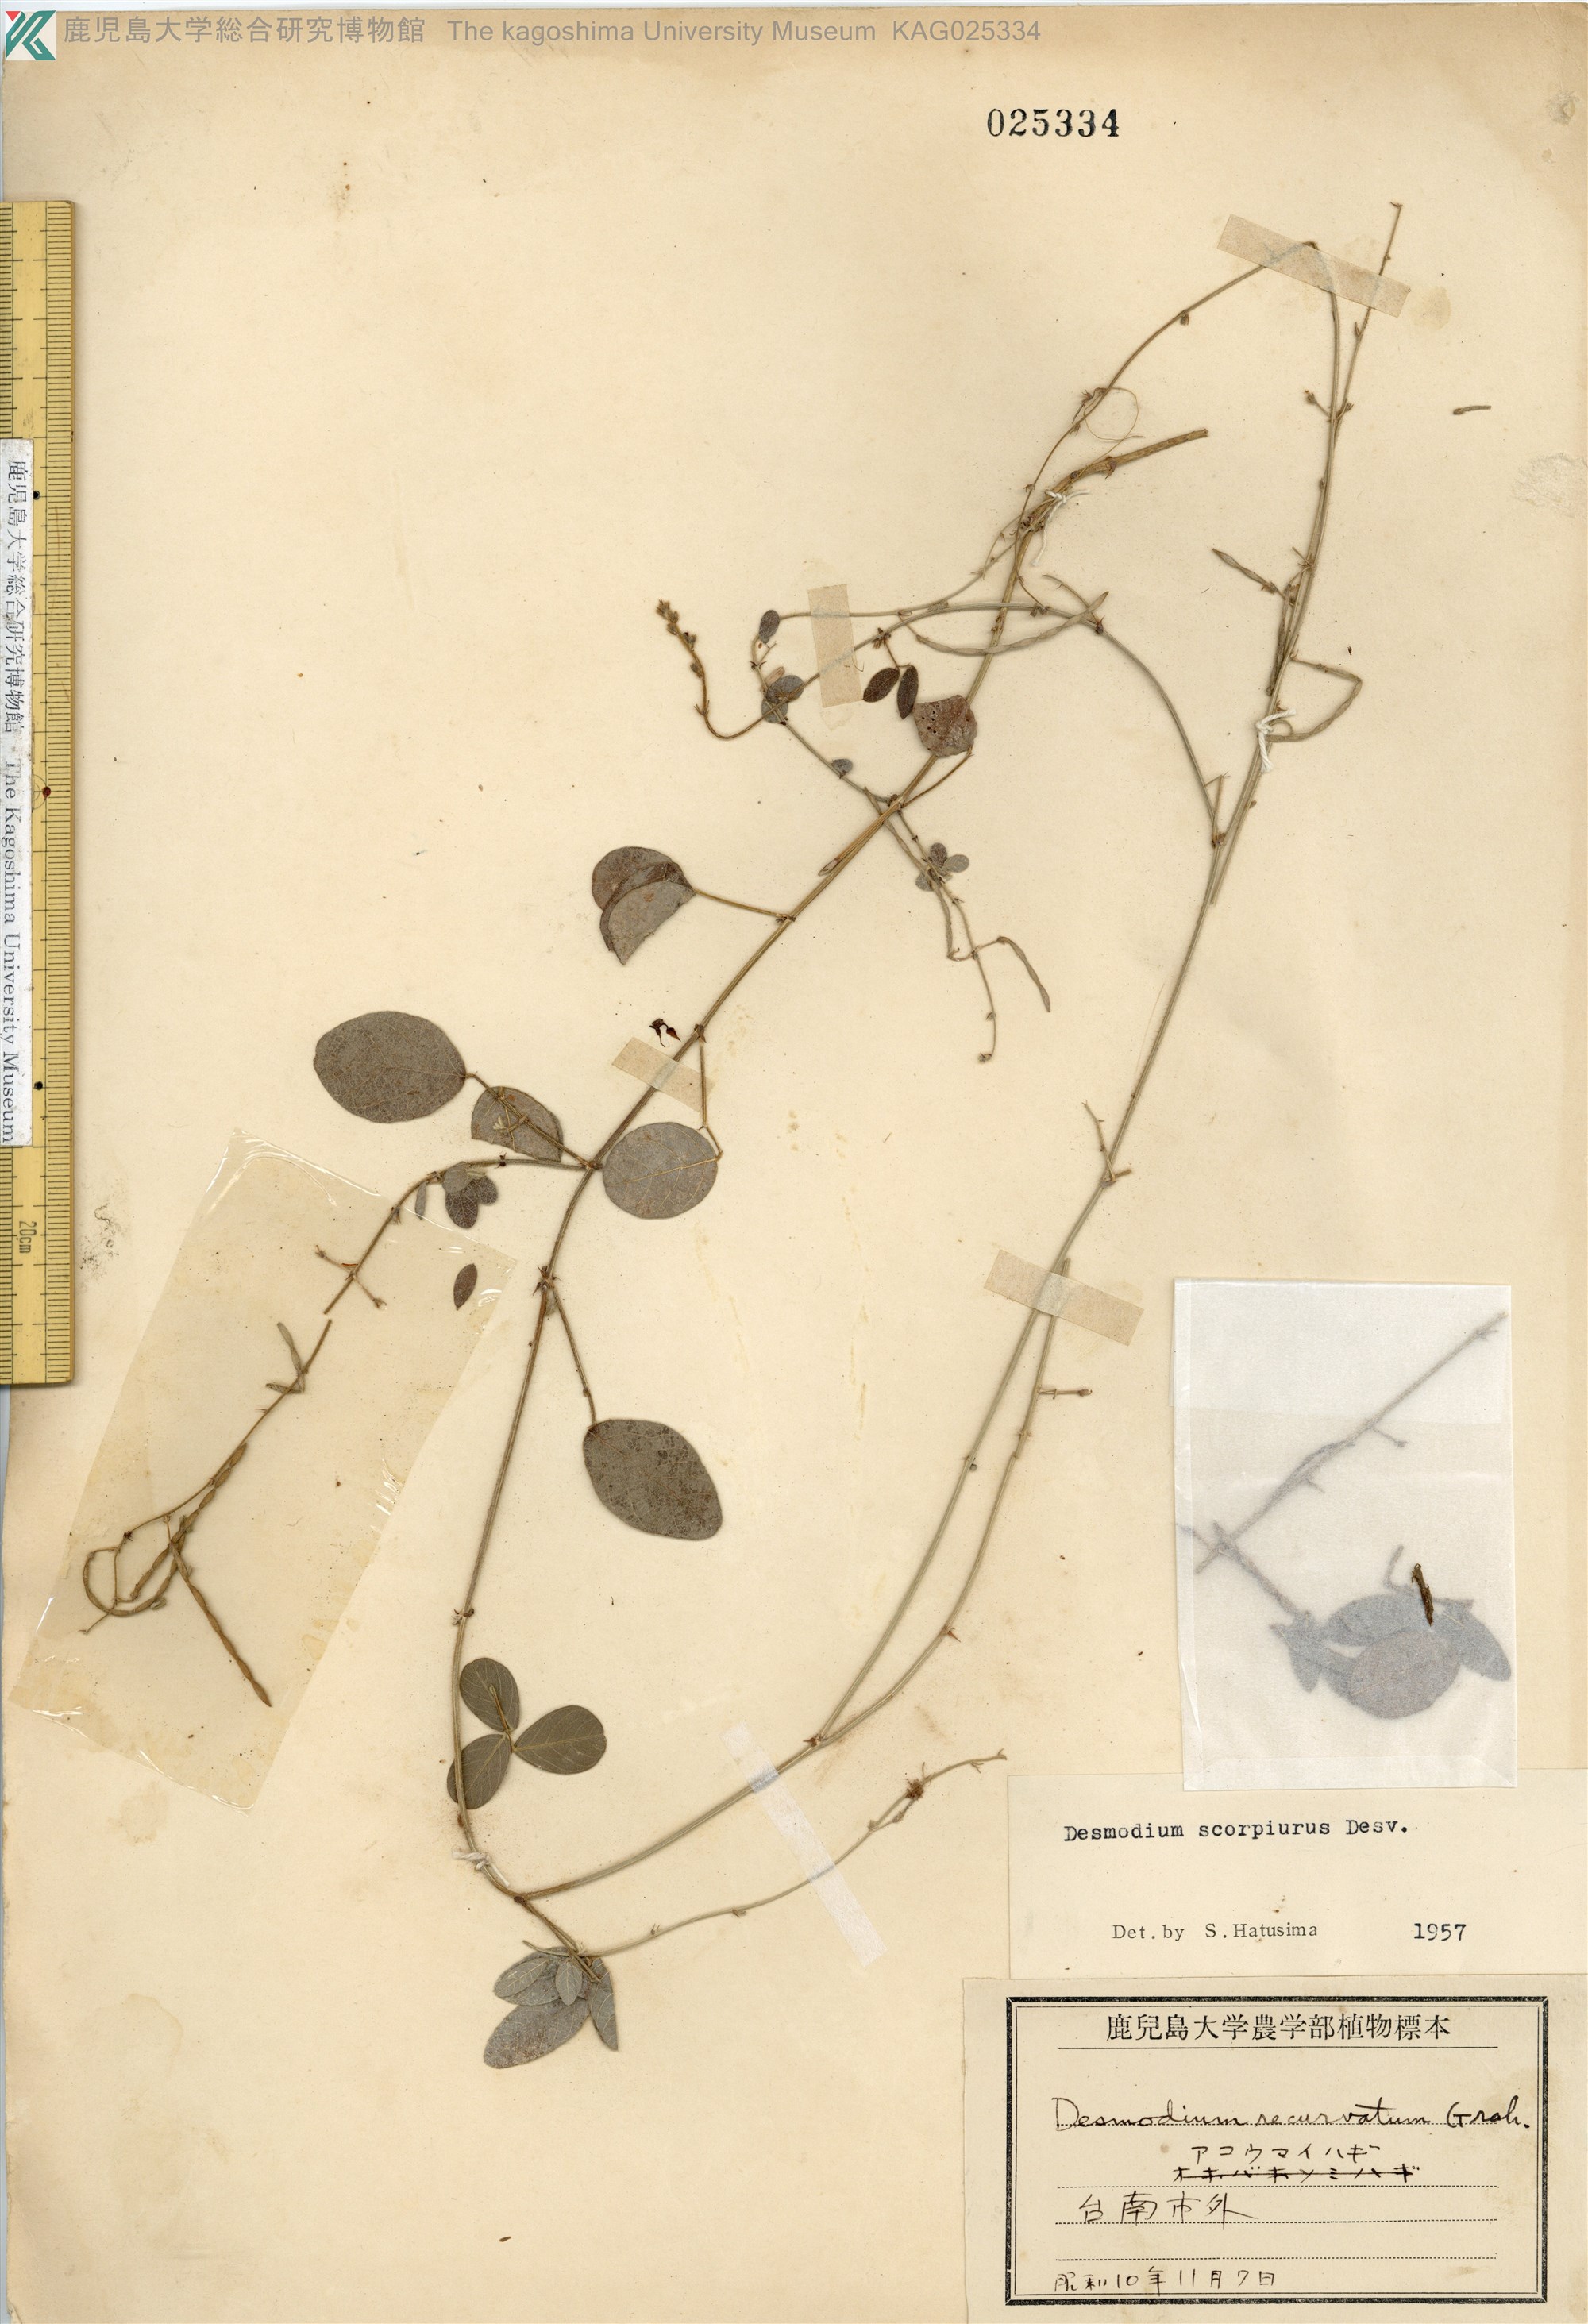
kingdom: Plantae
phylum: Tracheophyta
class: Magnoliopsida
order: Fabales
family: Fabaceae
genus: Desmodium
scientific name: Desmodium scorpiurus
